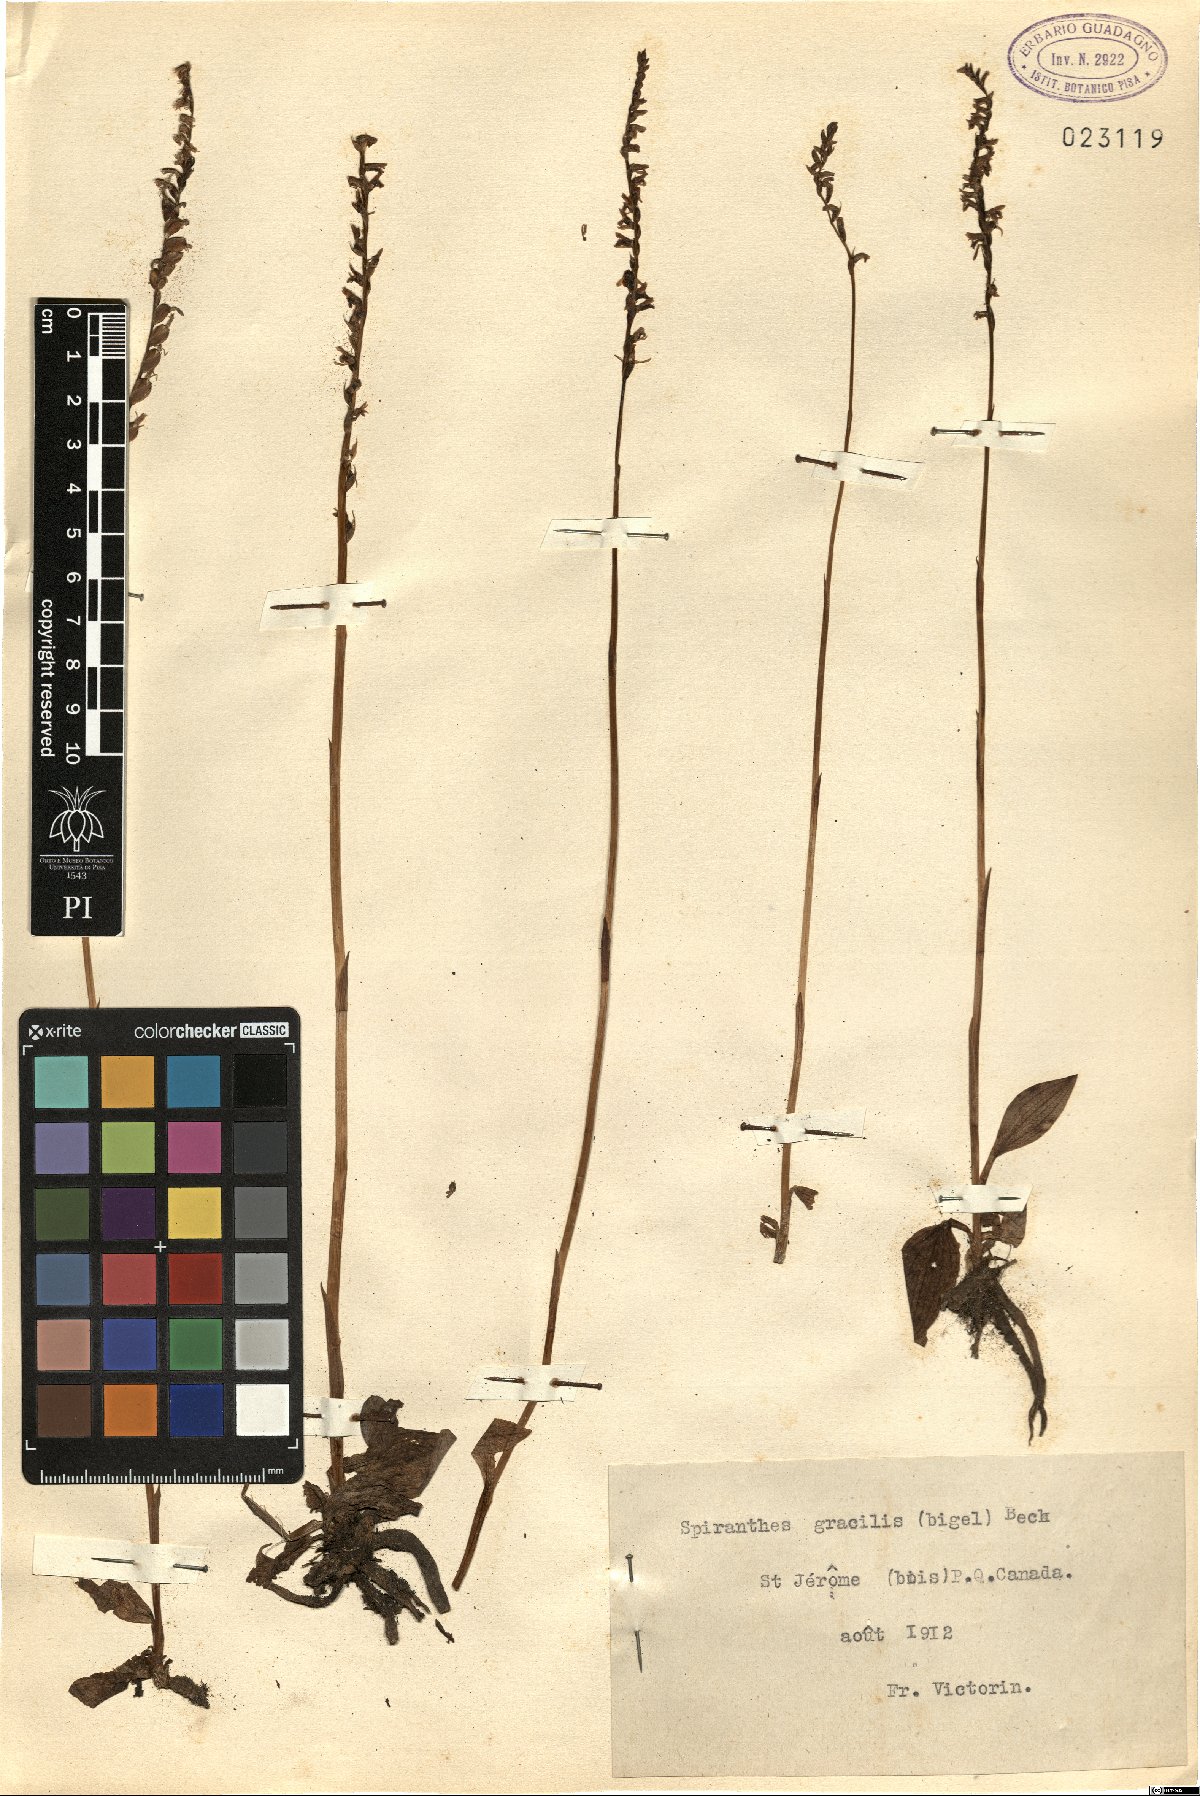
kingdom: Plantae
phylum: Tracheophyta
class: Liliopsida
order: Asparagales
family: Orchidaceae
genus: Spiranthes
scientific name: Spiranthes lacera
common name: Northern slender ladies'-tresses
